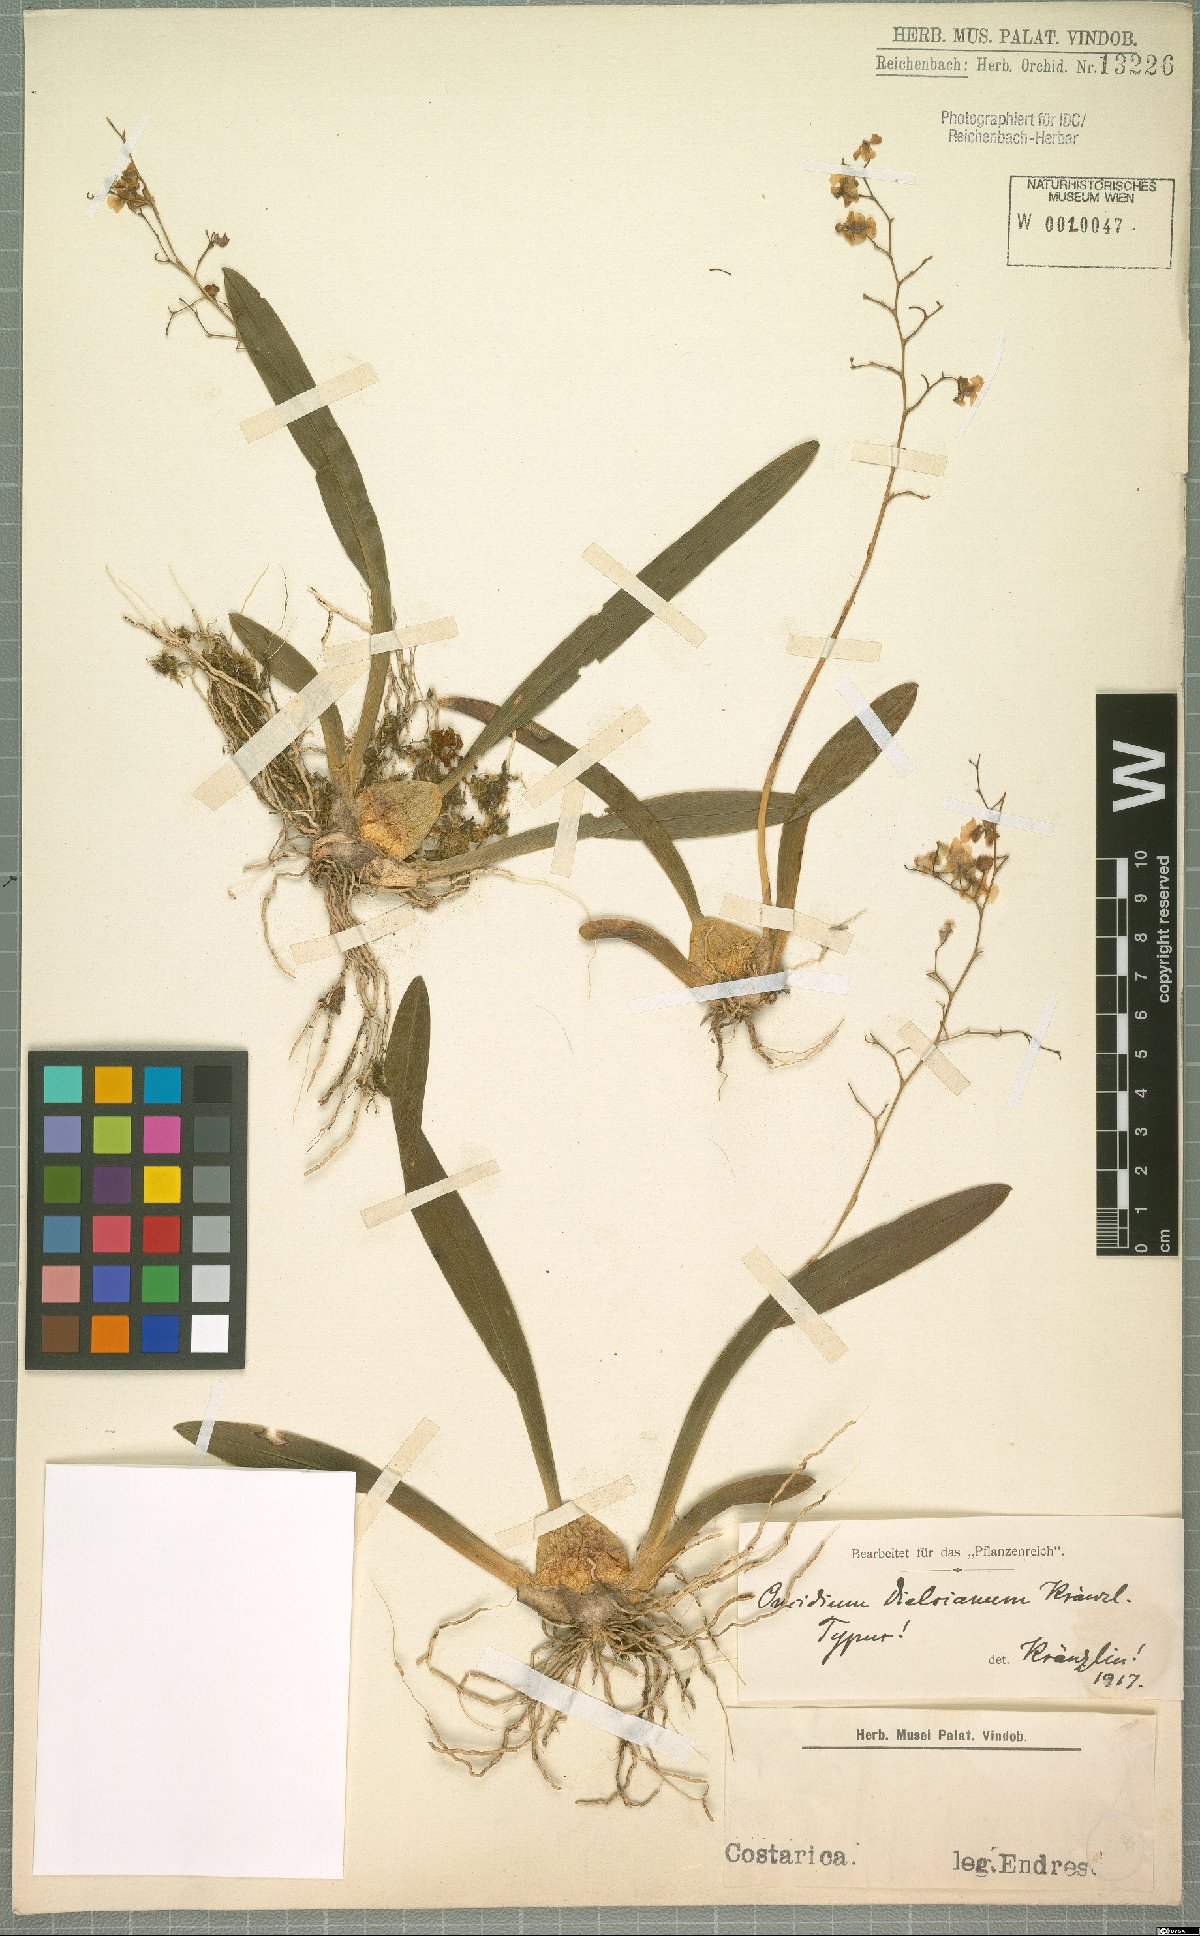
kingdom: Plantae
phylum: Tracheophyta
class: Liliopsida
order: Asparagales
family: Orchidaceae
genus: Oncidium
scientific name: Oncidium cheirophorum
